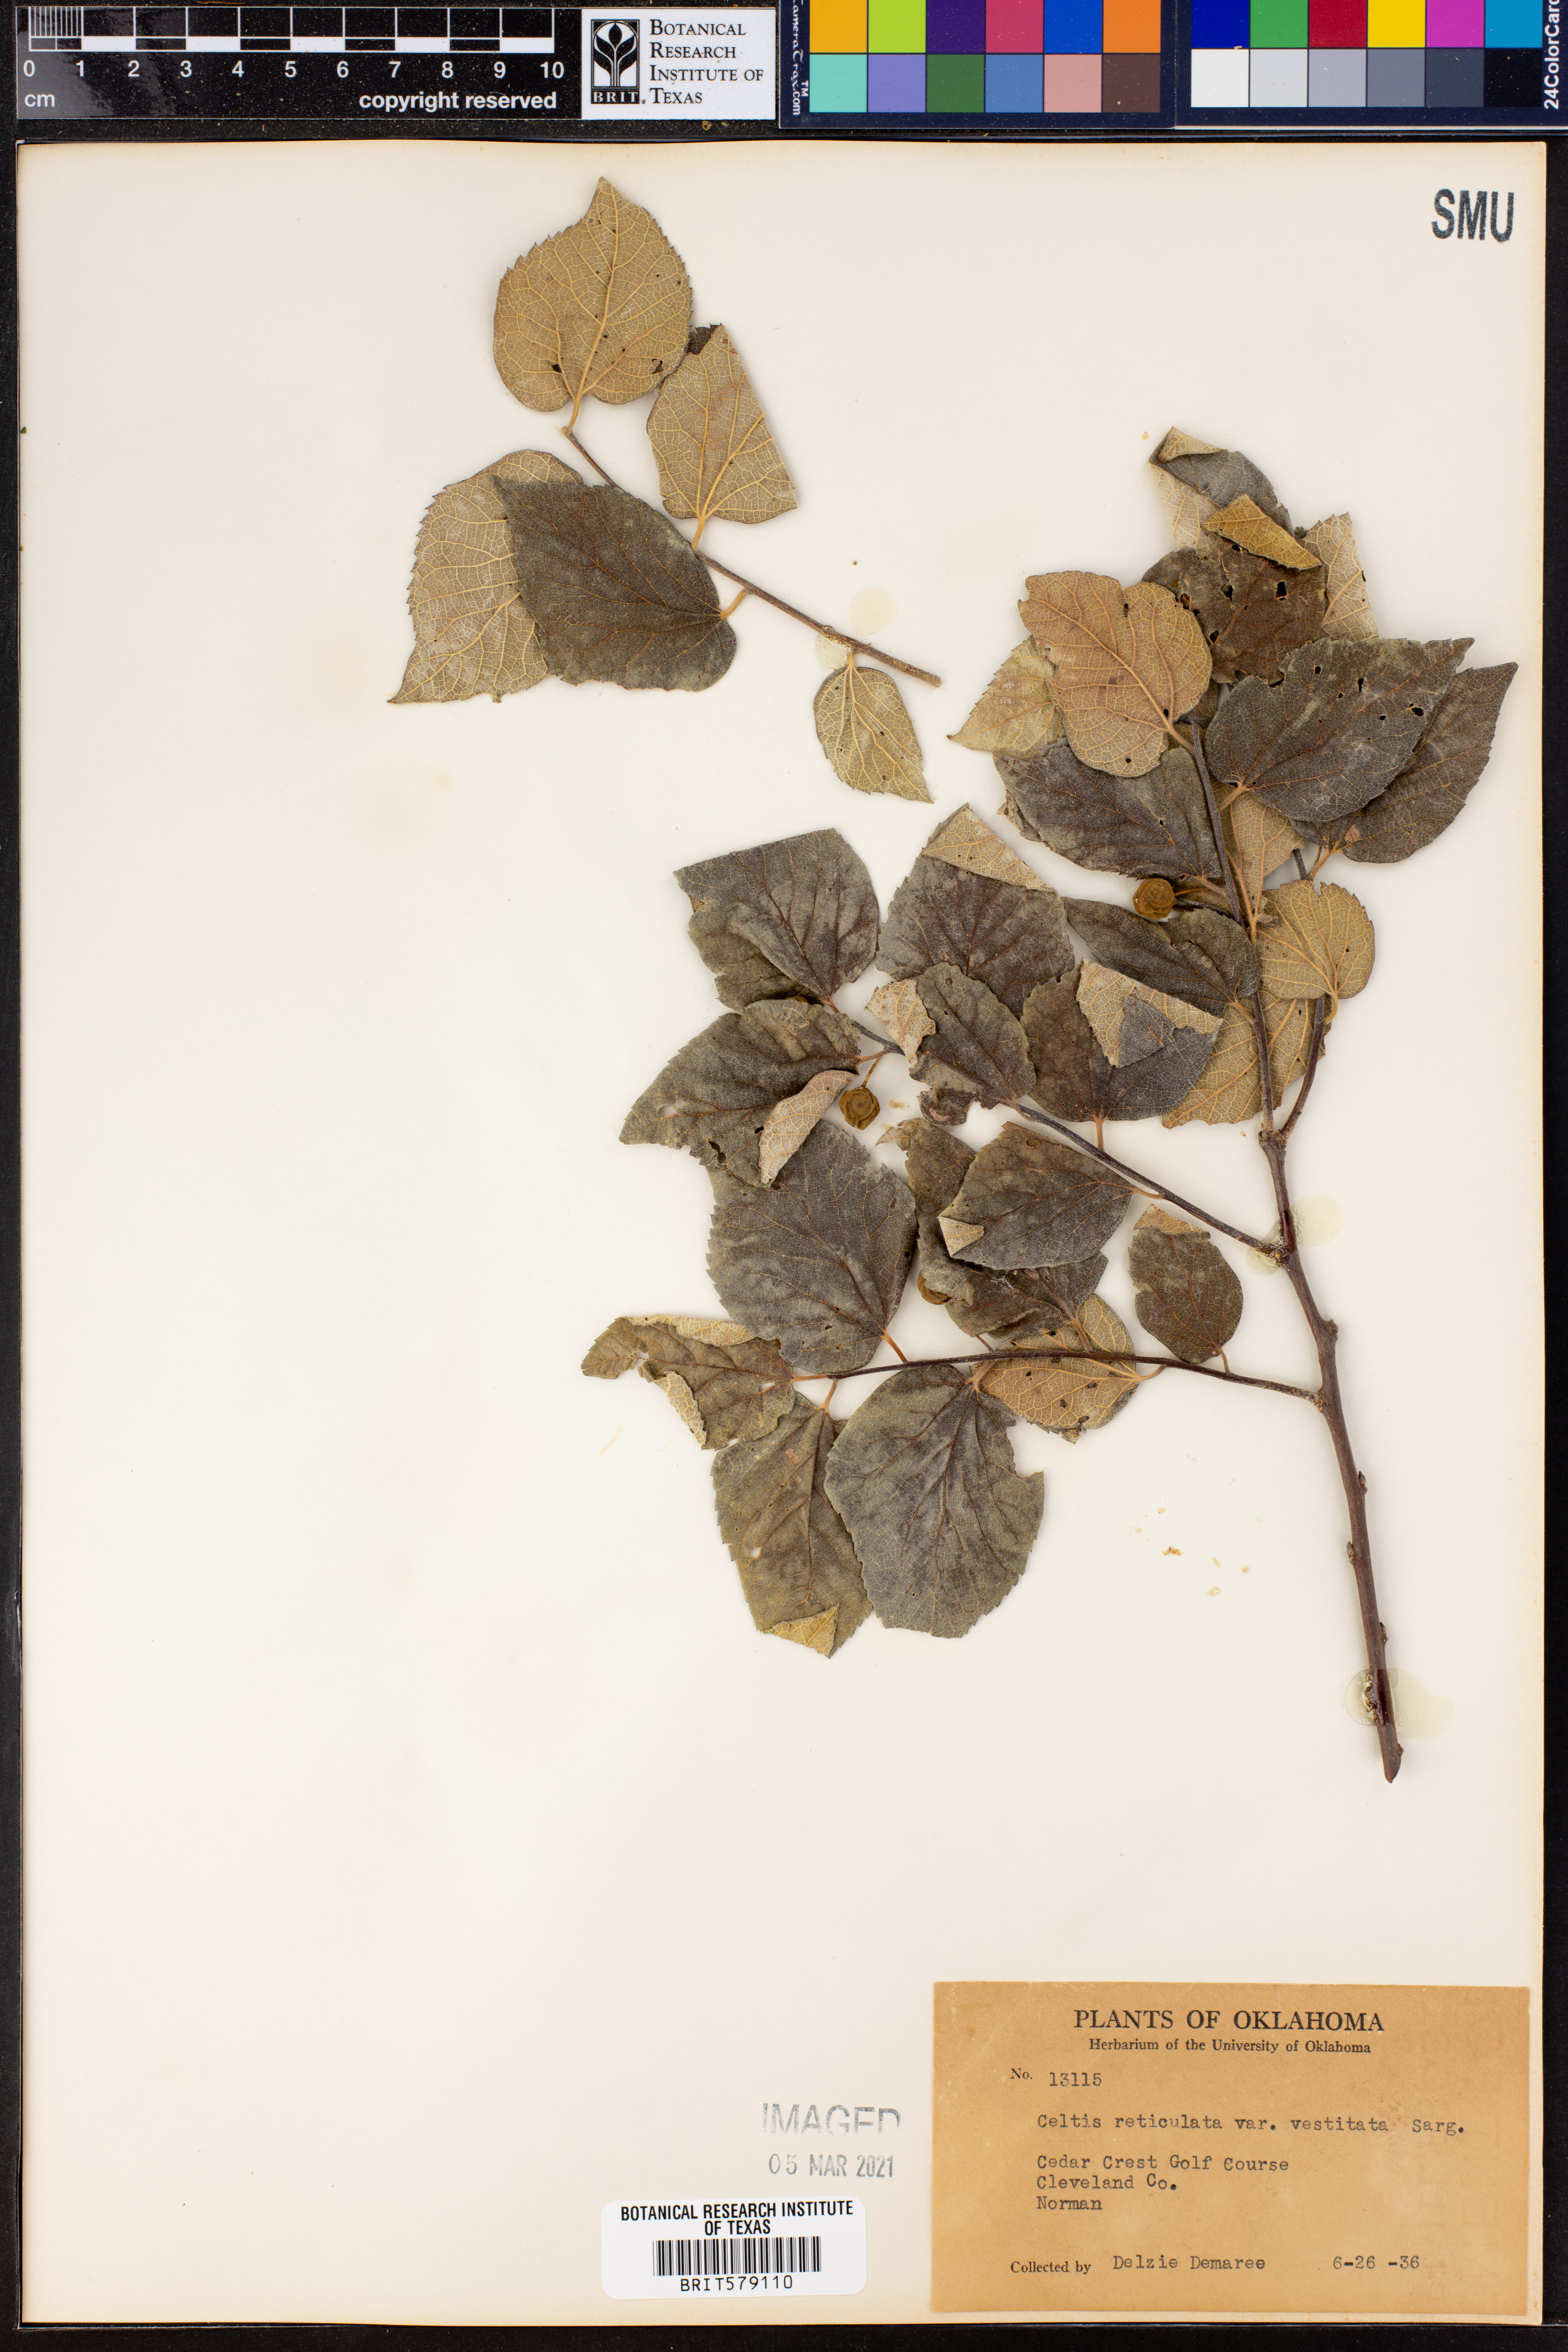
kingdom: Plantae
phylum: Tracheophyta
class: Magnoliopsida
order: Rosales
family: Cannabaceae
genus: Celtis
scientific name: Celtis reticulata
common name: Netleaf hackberry
